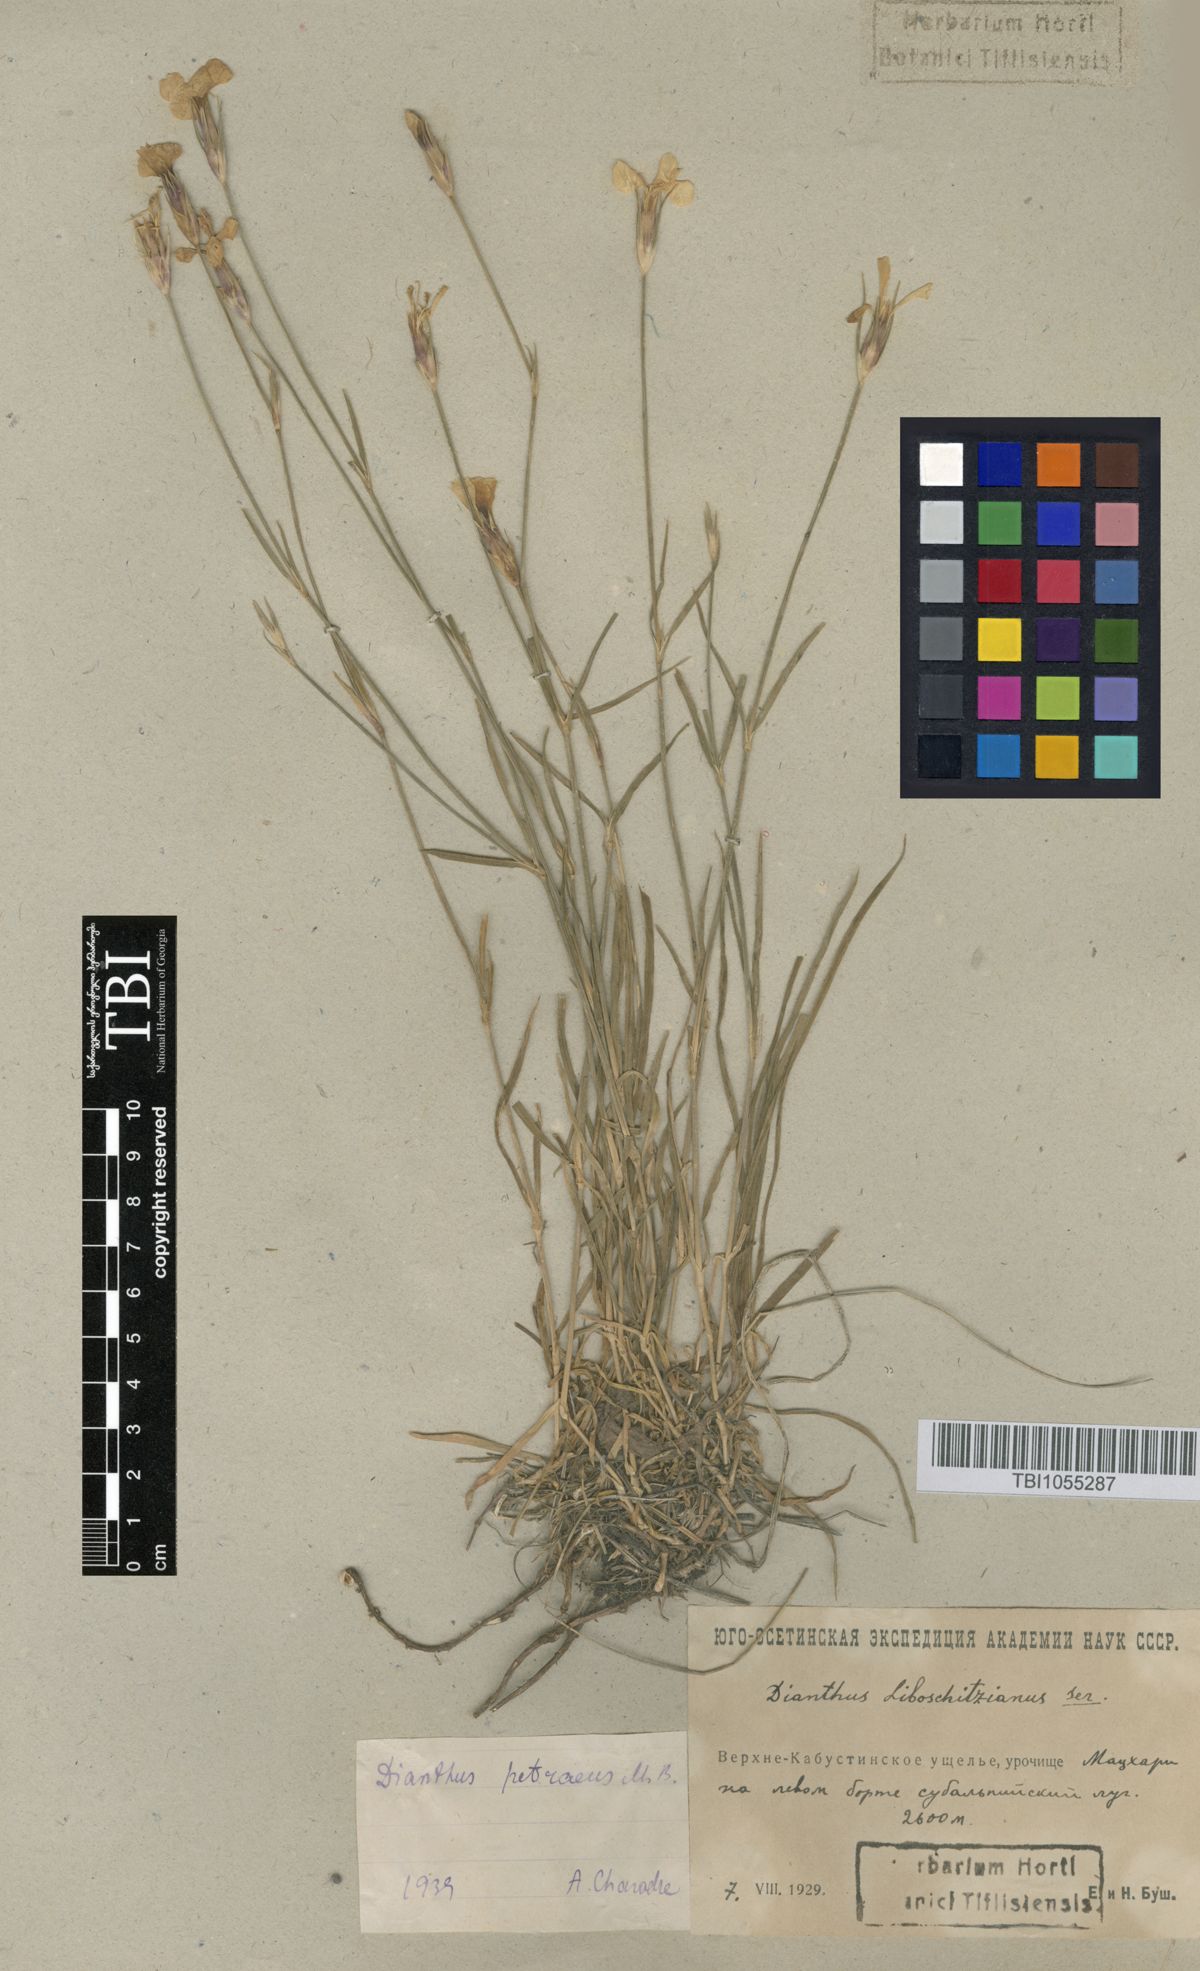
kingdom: Plantae
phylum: Tracheophyta
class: Magnoliopsida
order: Caryophyllales
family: Caryophyllaceae
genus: Dianthus
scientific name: Dianthus cretaceus
